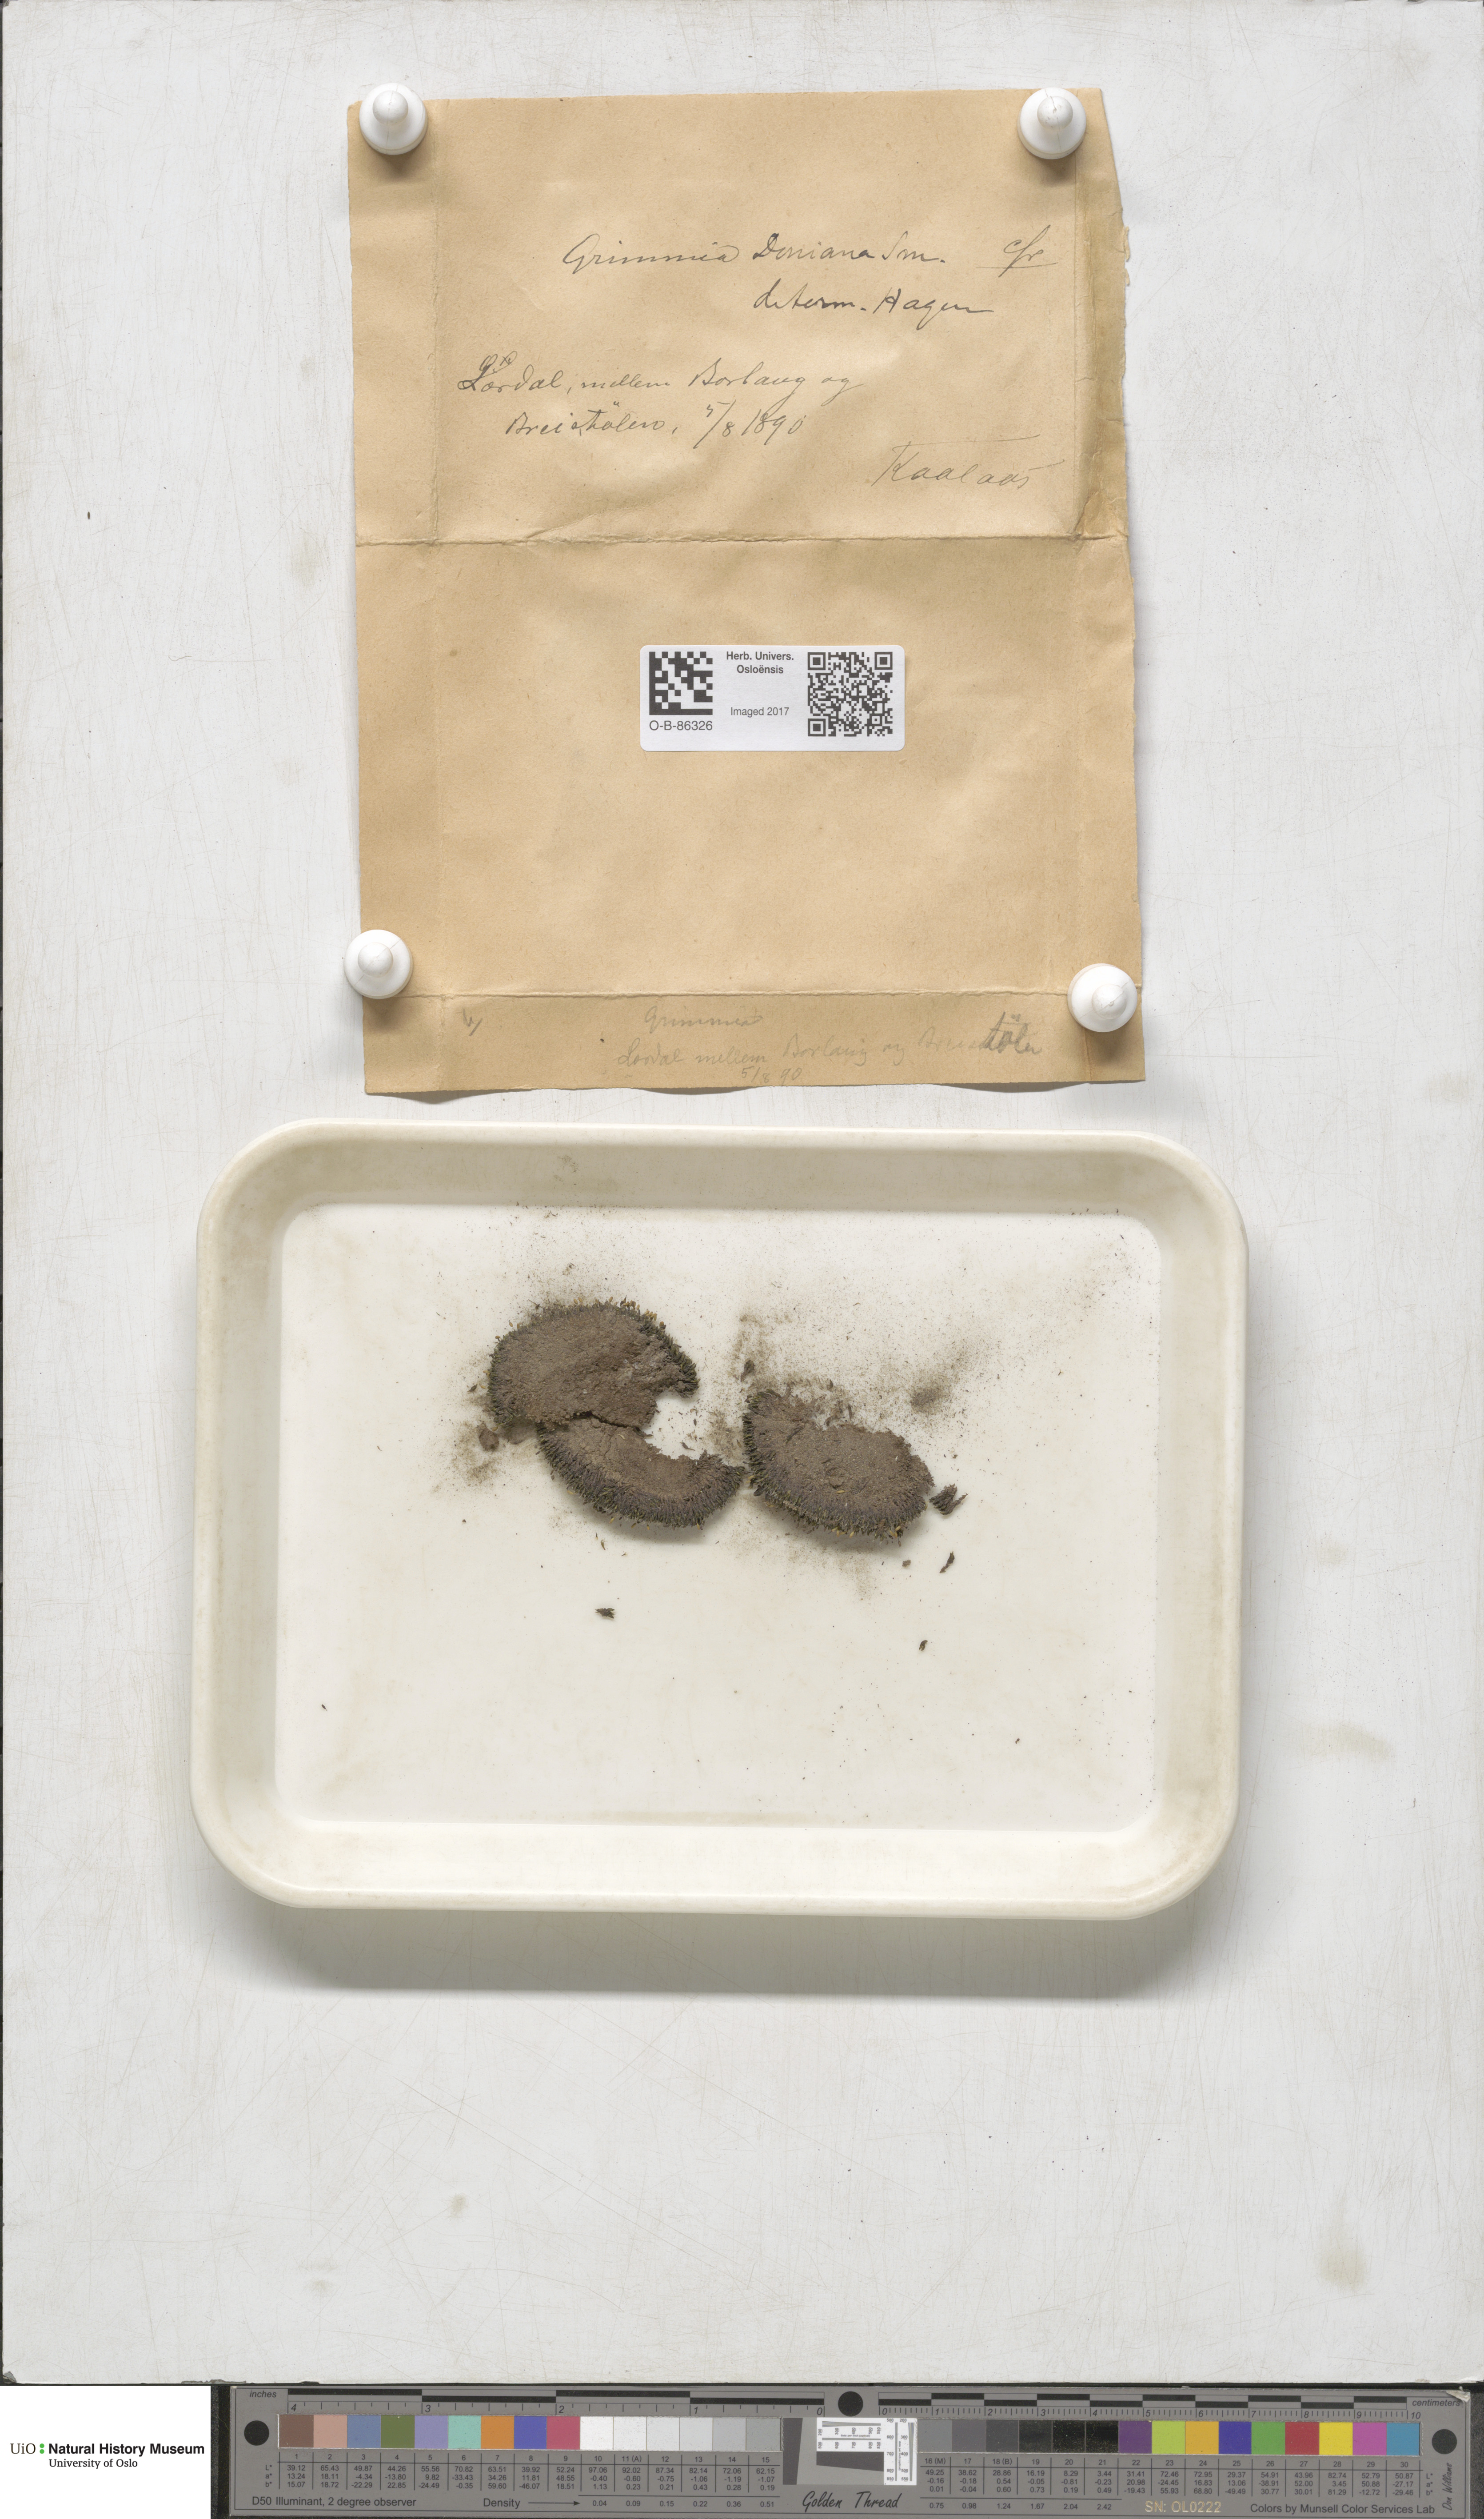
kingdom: Plantae
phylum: Bryophyta
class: Bryopsida
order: Grimmiales
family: Grimmiaceae
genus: Grimmia
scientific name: Grimmia donniana
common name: Donn's grimmia
